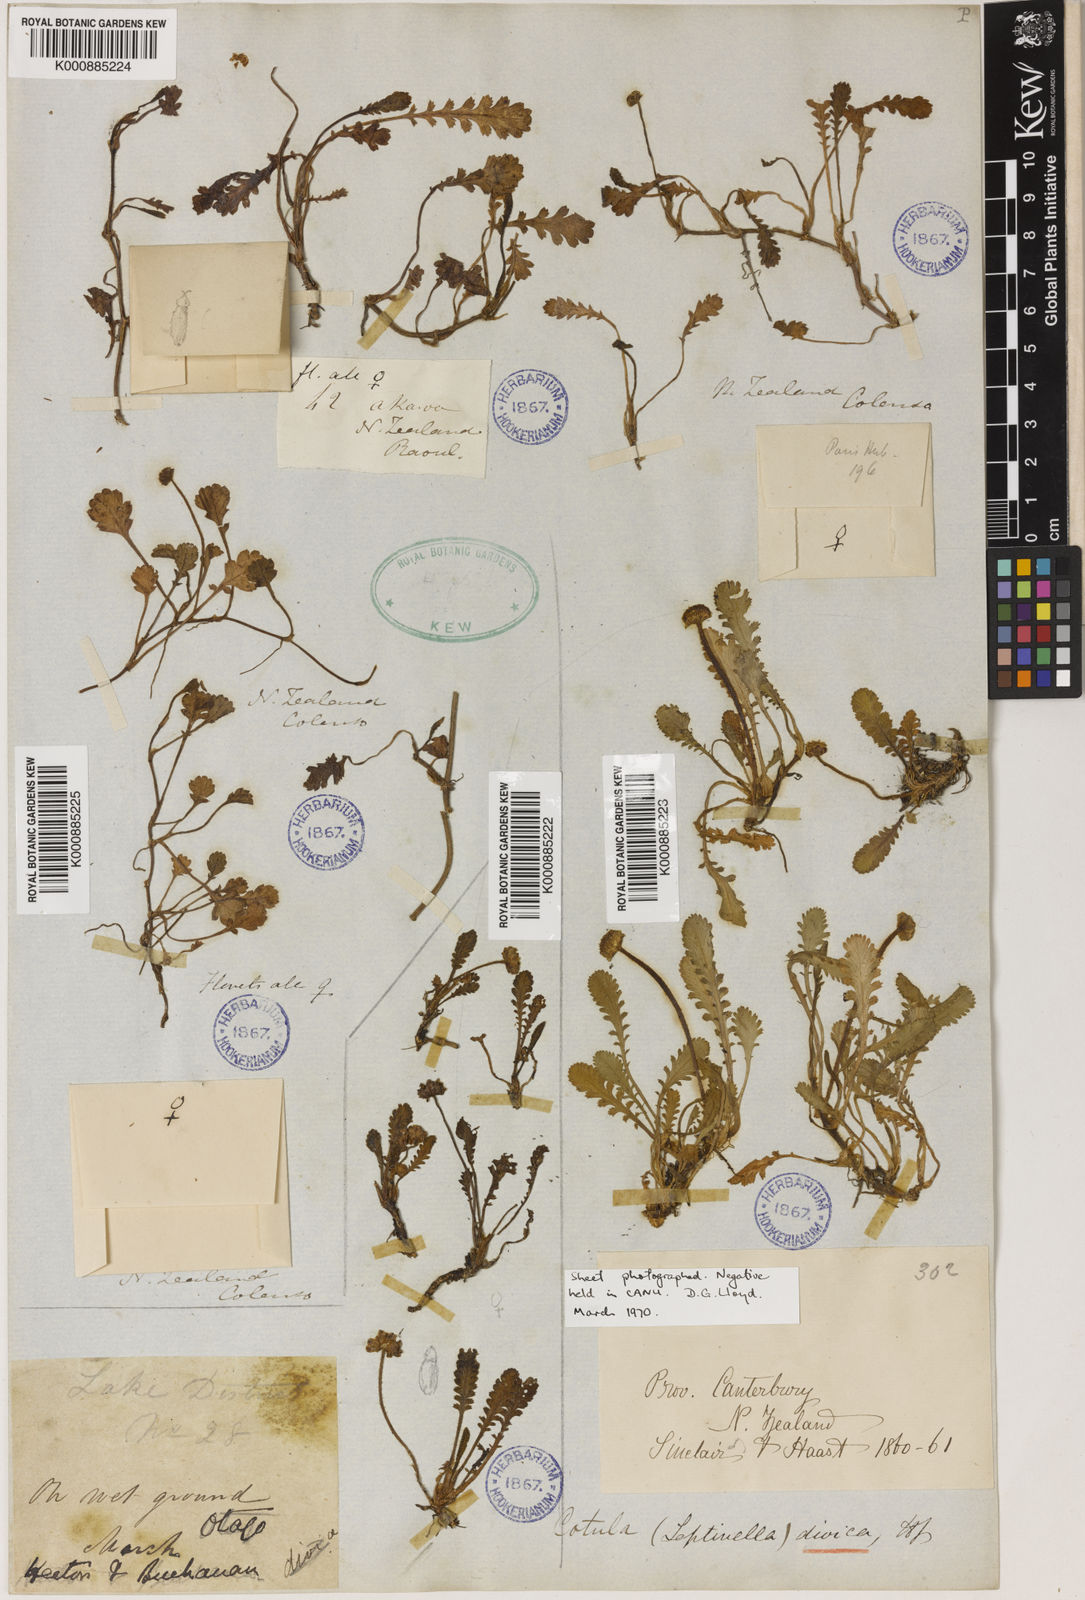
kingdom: Plantae
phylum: Tracheophyta
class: Magnoliopsida
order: Asterales
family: Asteraceae
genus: Leptinella
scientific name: Leptinella dioica
